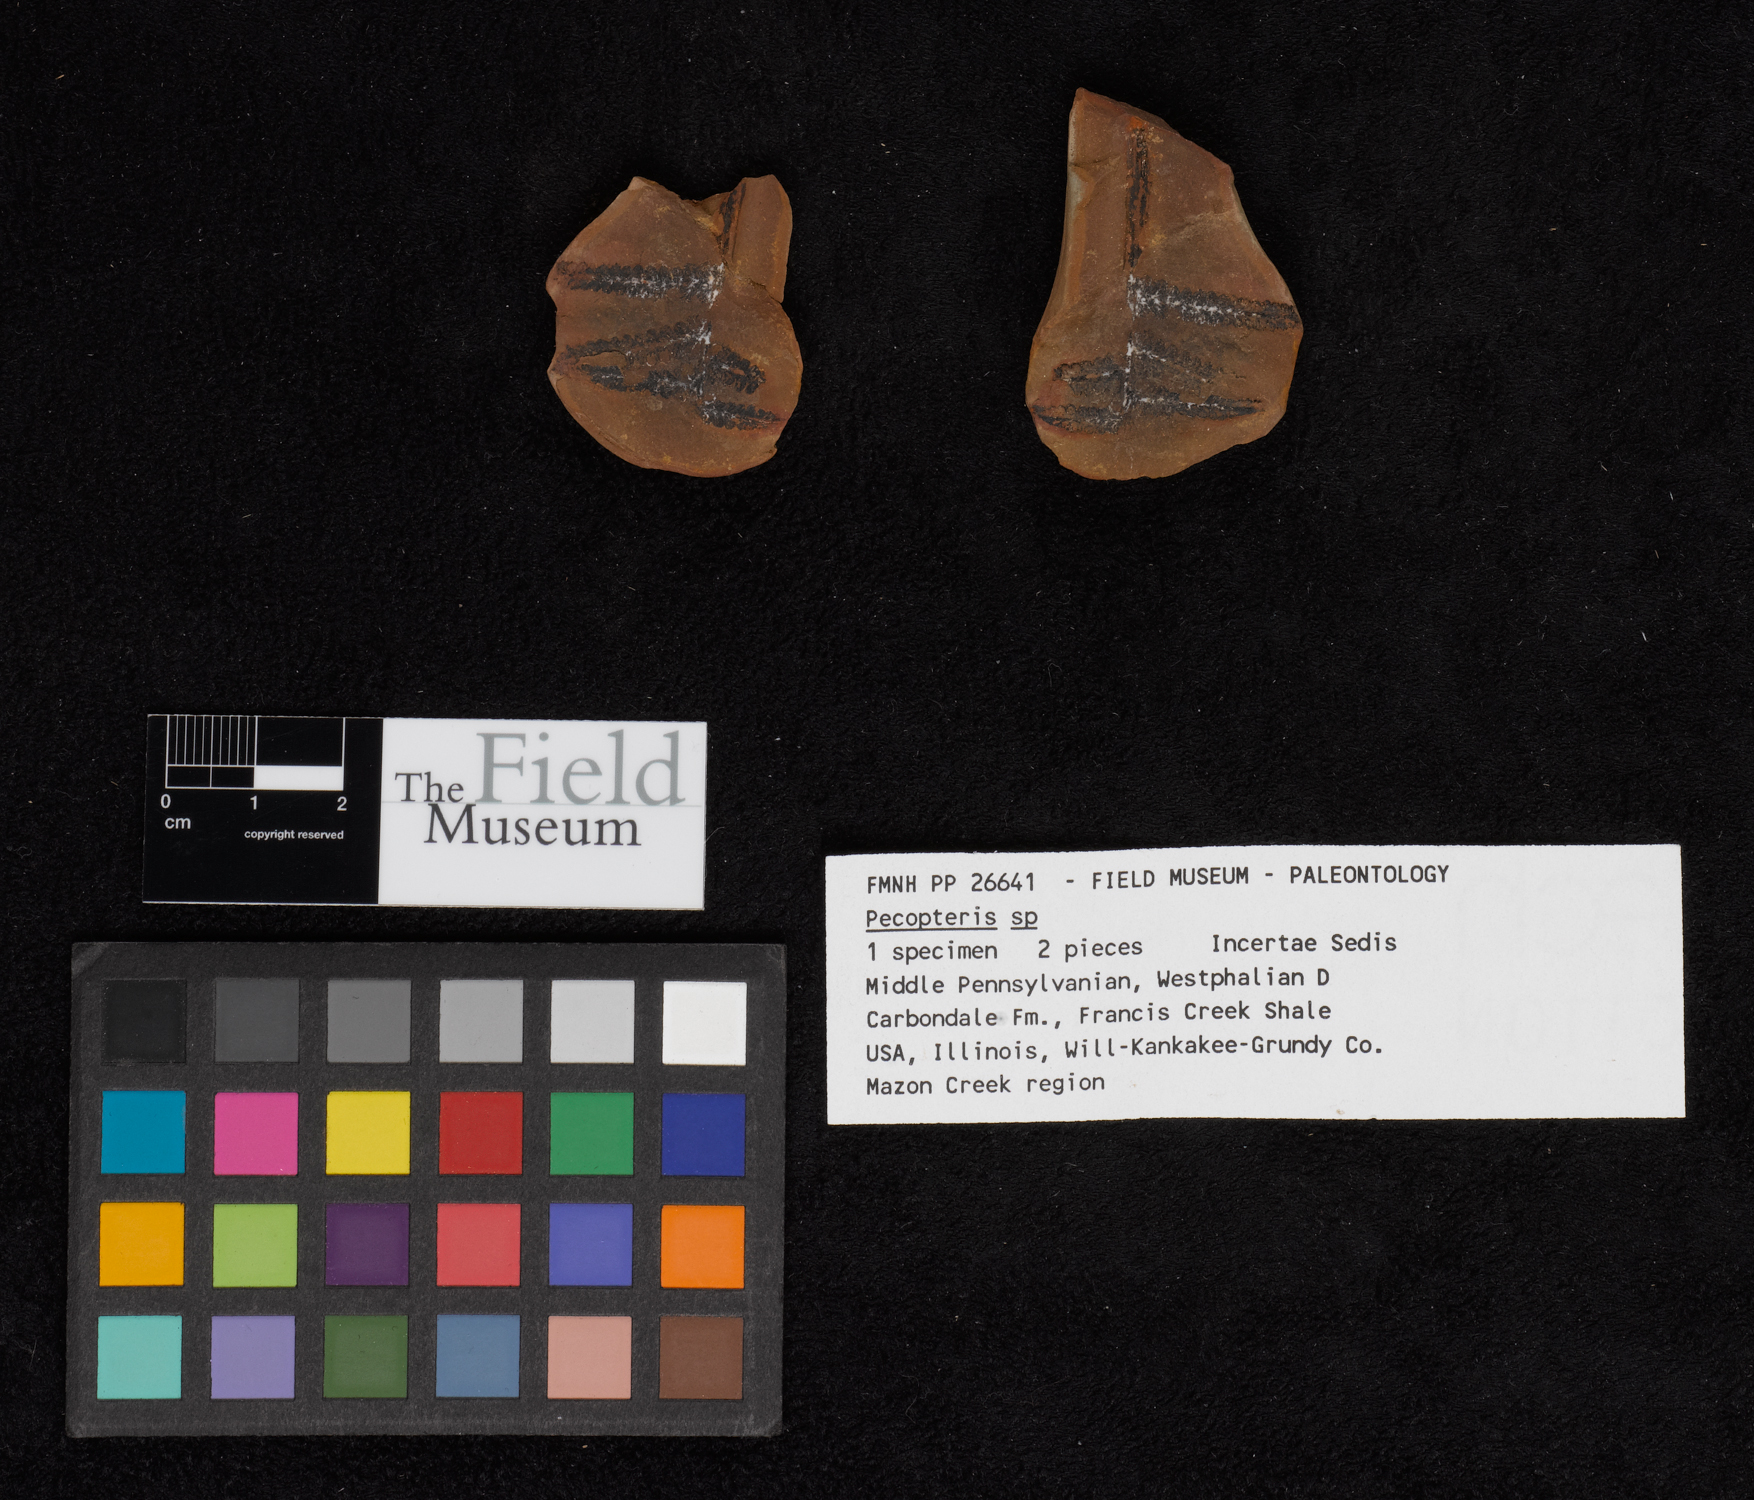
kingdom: Plantae
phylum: Tracheophyta
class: Polypodiopsida
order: Marattiales
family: Asterothecaceae
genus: Pecopteris
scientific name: Pecopteris
